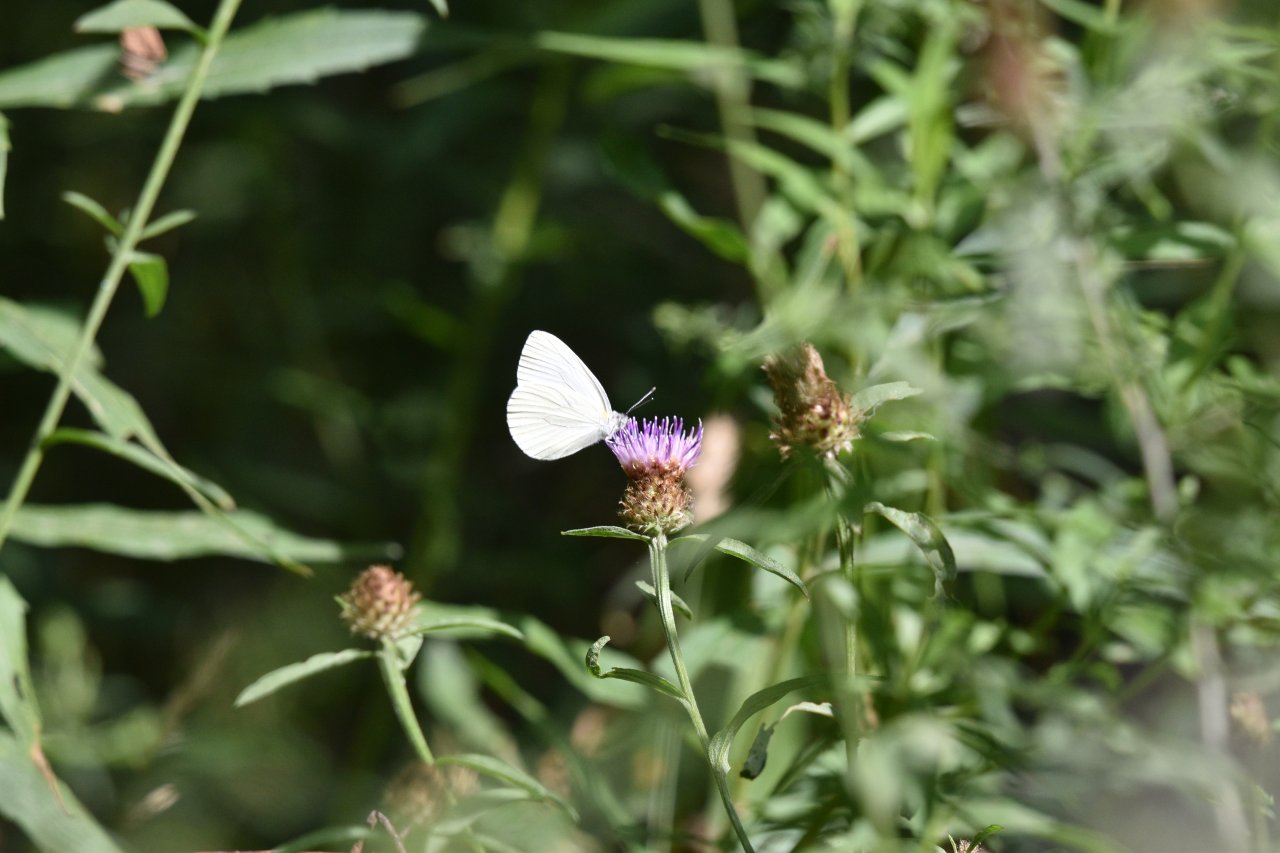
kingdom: Animalia
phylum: Arthropoda
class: Insecta
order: Lepidoptera
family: Pieridae
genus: Pieris
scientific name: Pieris oleracea
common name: Mustard White
